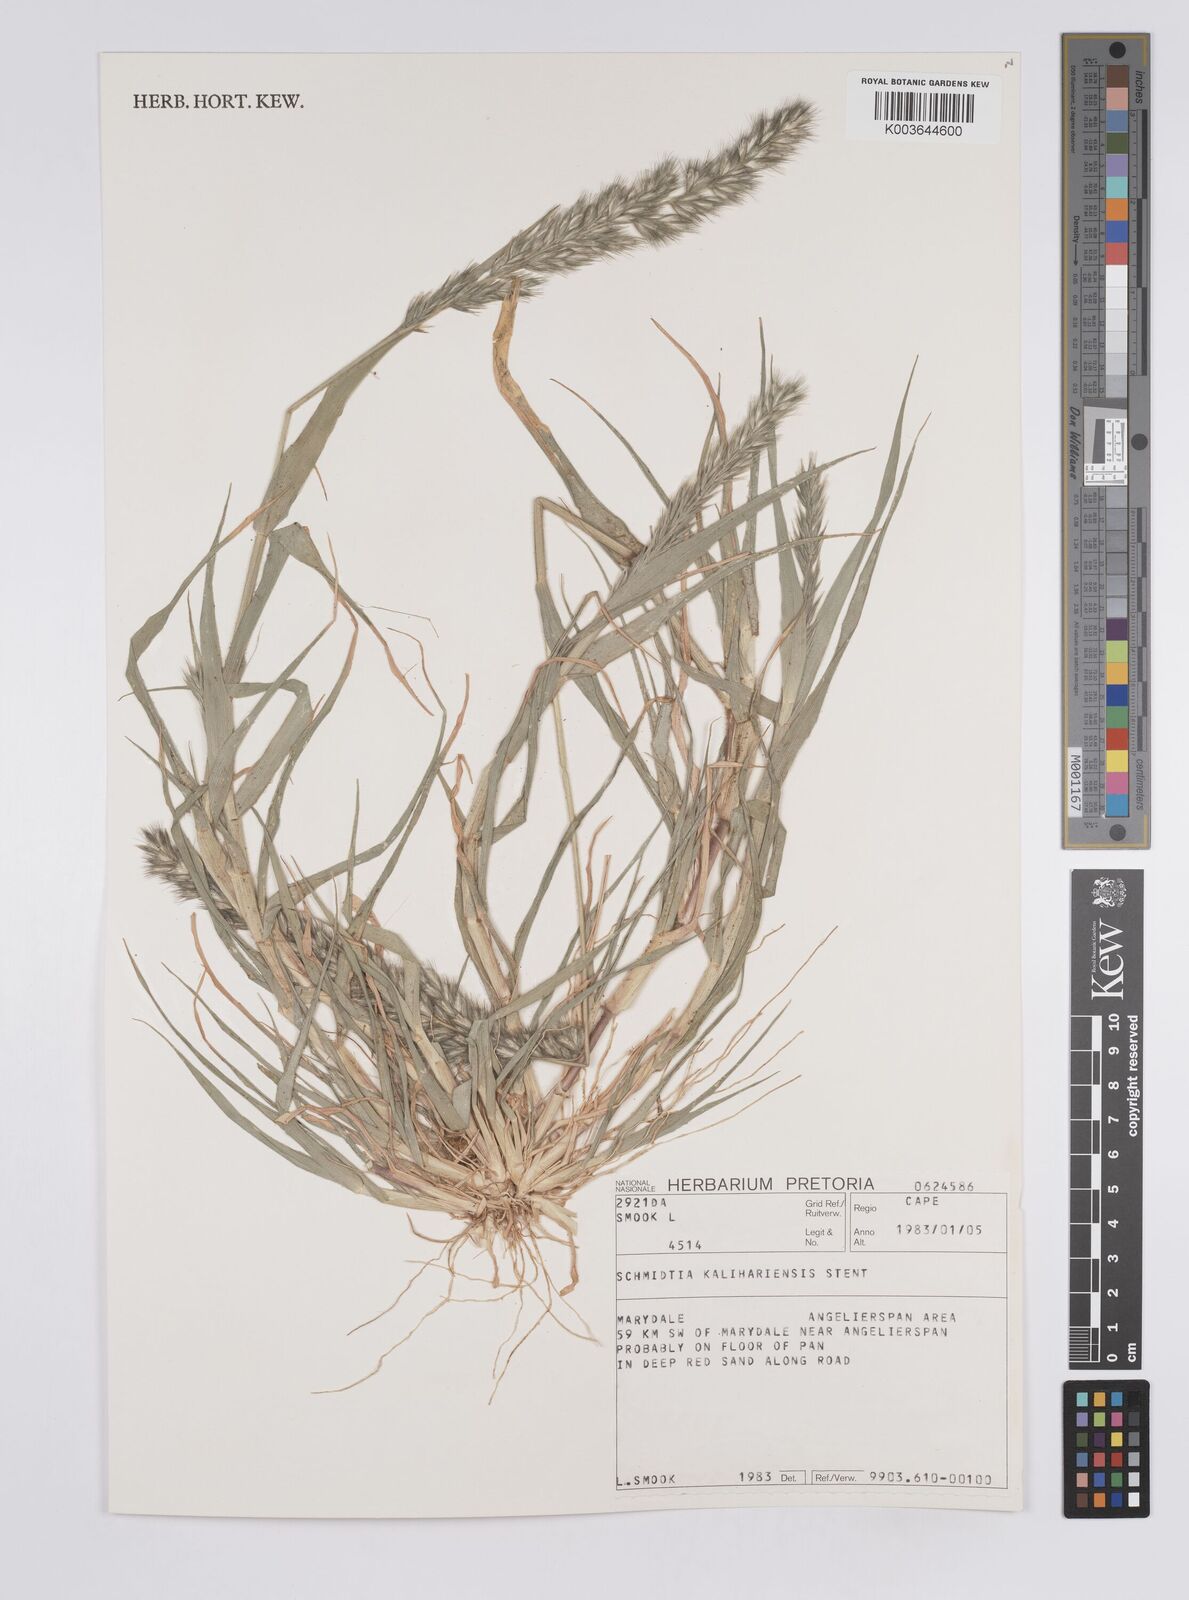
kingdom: Plantae
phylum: Tracheophyta
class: Liliopsida
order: Poales
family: Poaceae
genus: Schmidtia
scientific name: Schmidtia kalahariensis
